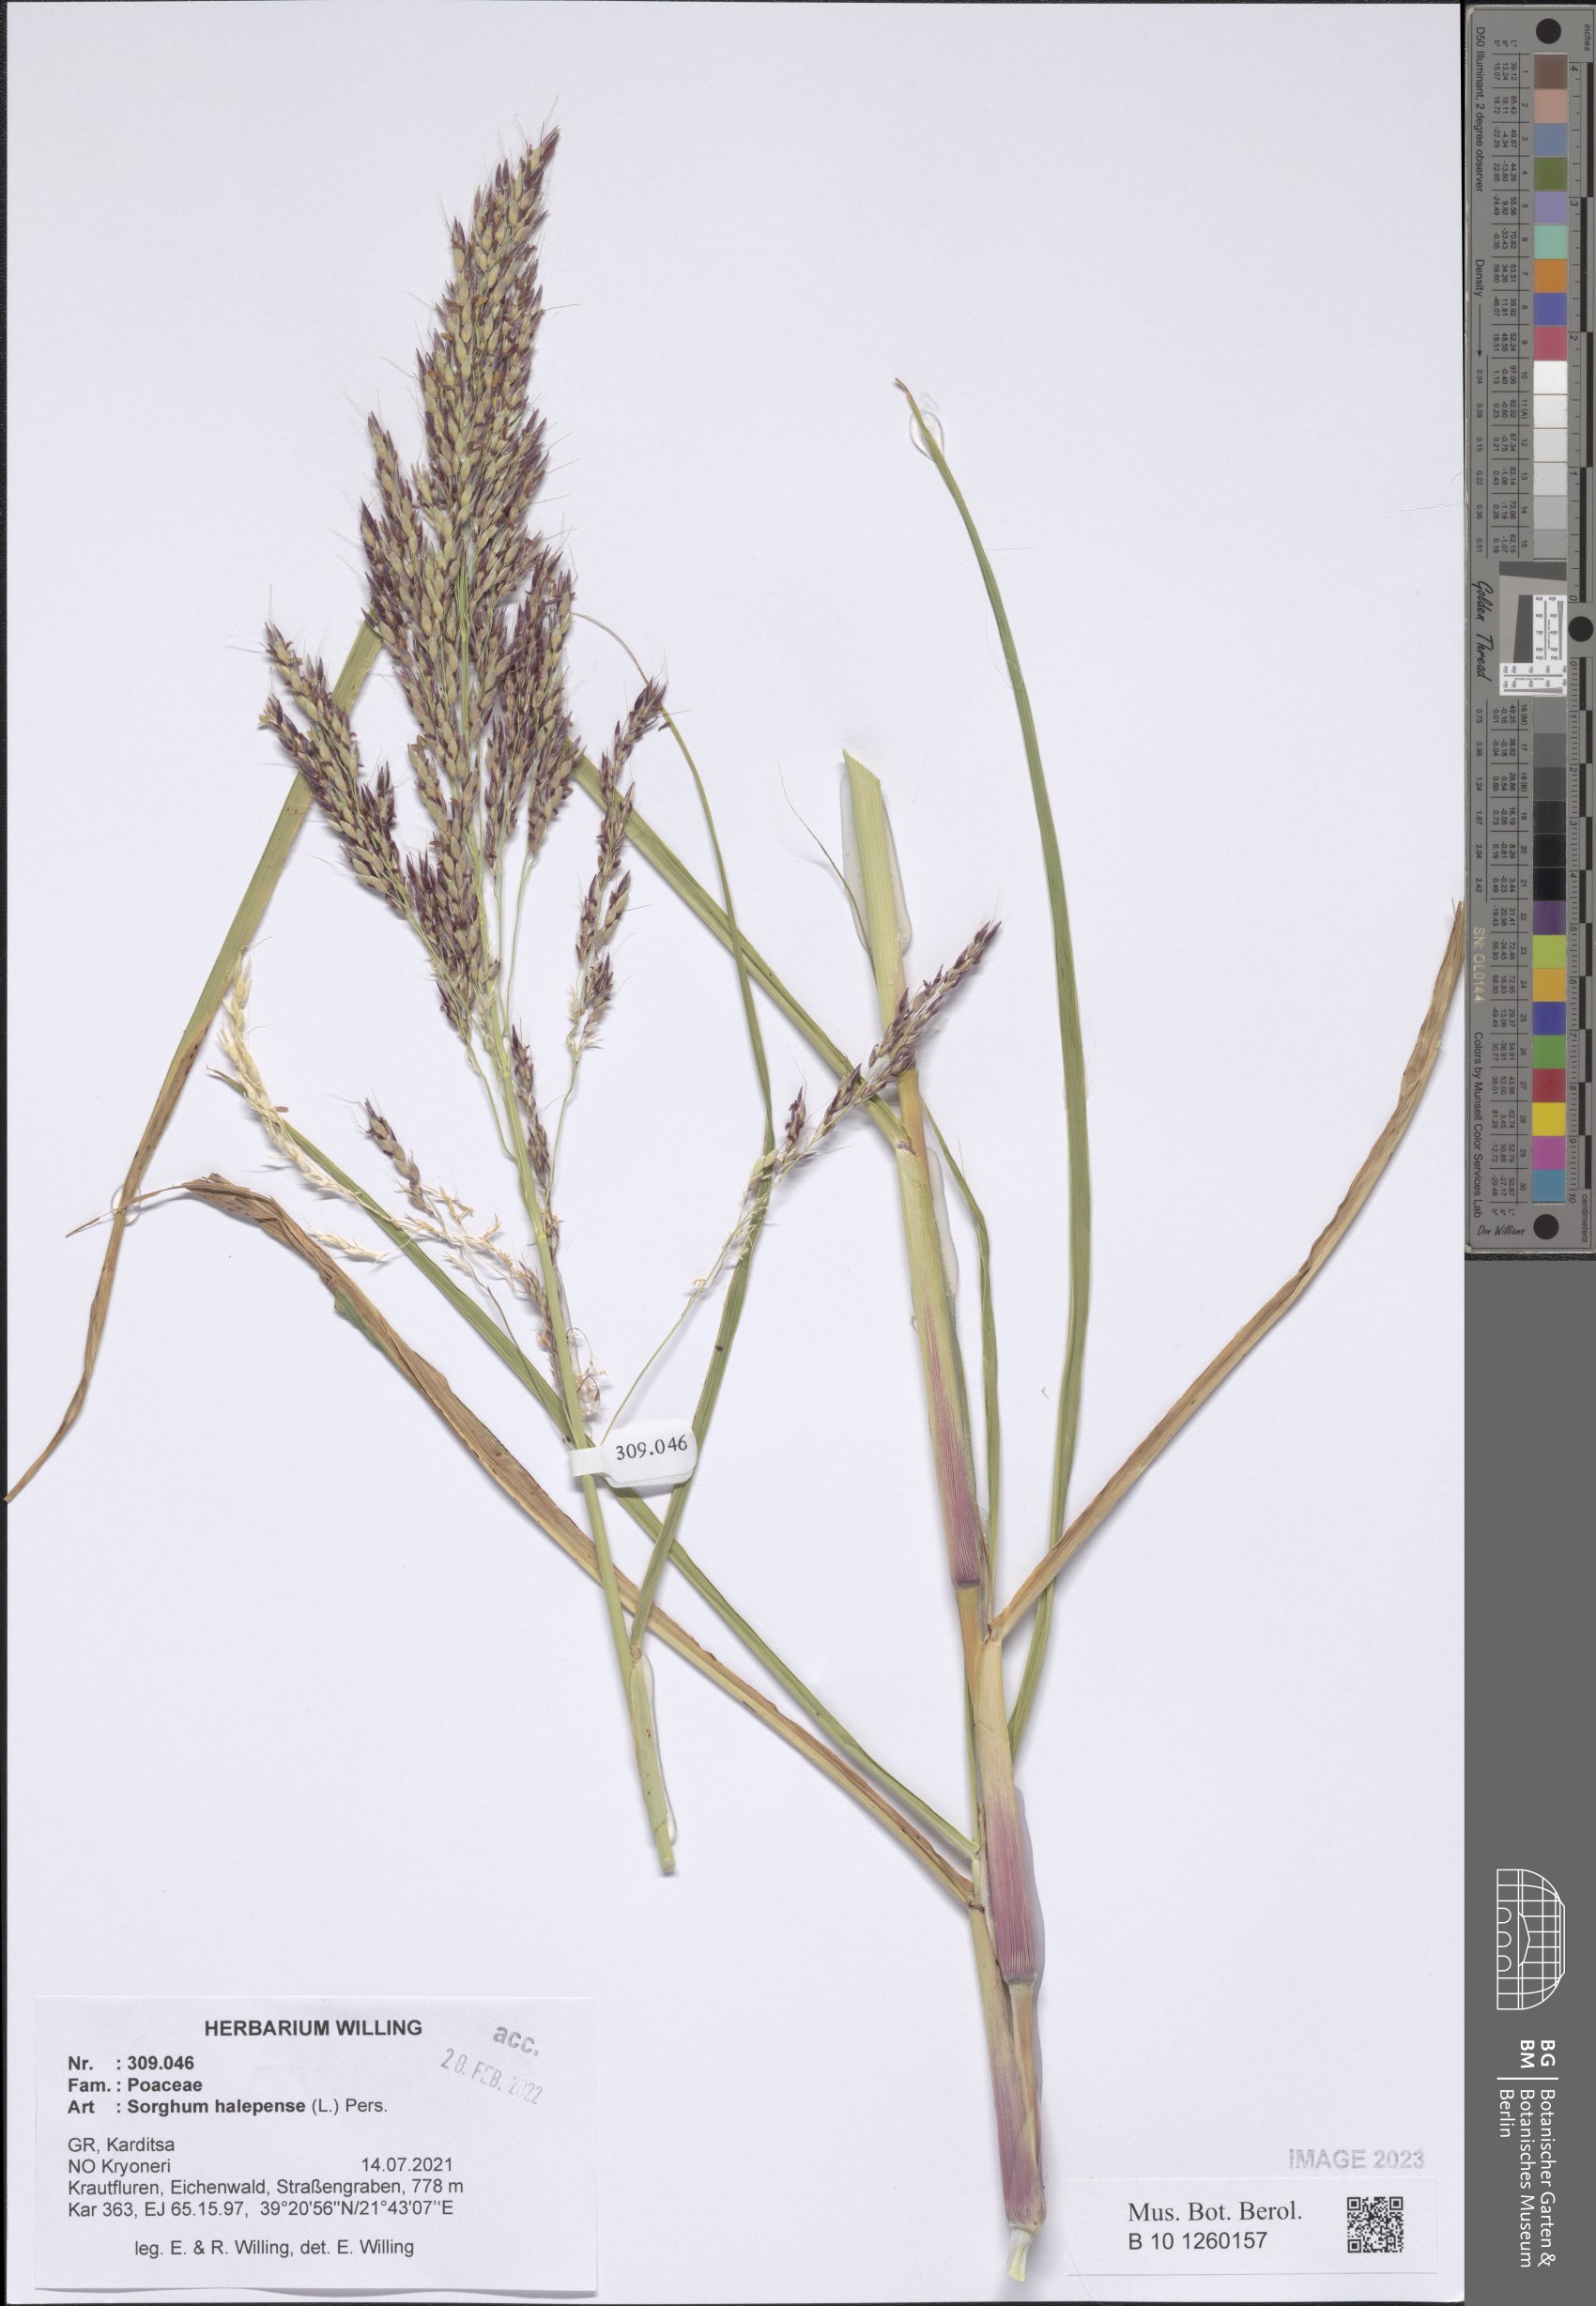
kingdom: Plantae
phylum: Tracheophyta
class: Liliopsida
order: Poales
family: Poaceae
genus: Sorghum
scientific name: Sorghum halepense
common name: Johnson-grass
